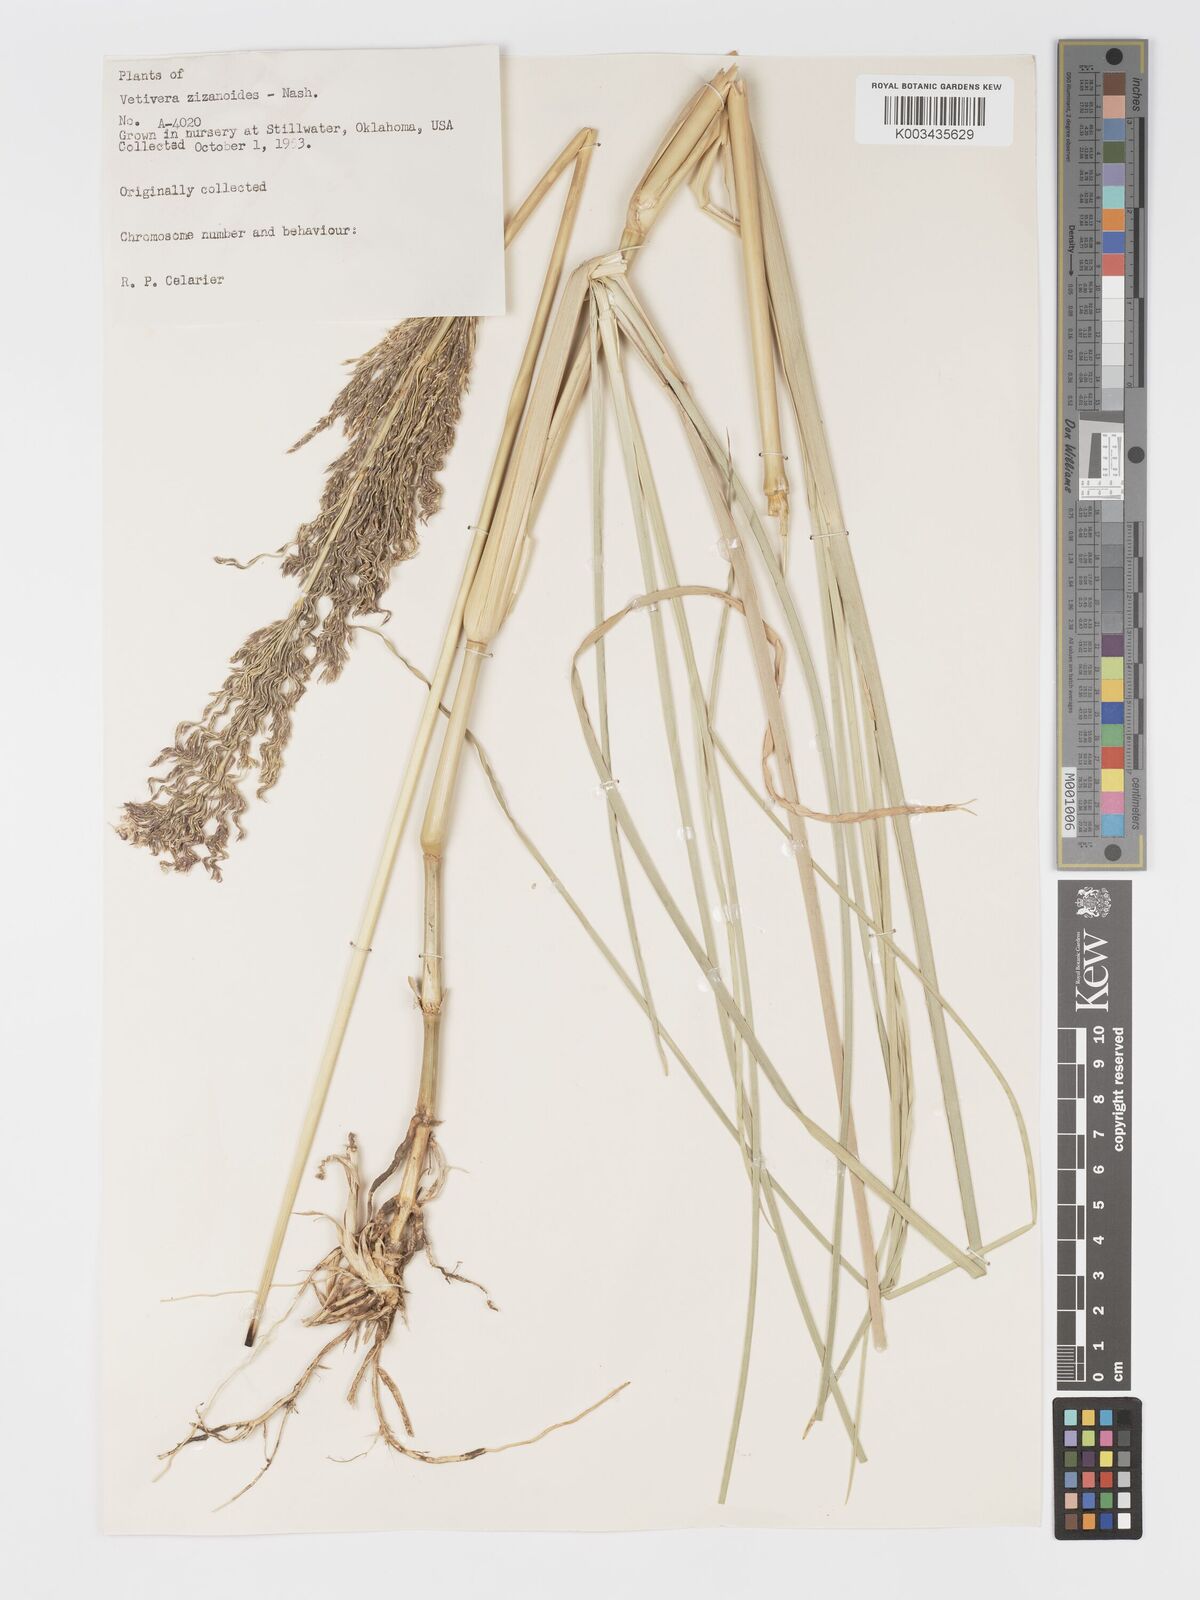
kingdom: Plantae
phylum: Tracheophyta
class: Liliopsida
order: Poales
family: Poaceae
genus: Chrysopogon
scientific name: Chrysopogon zizanioides
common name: False beardgrass
